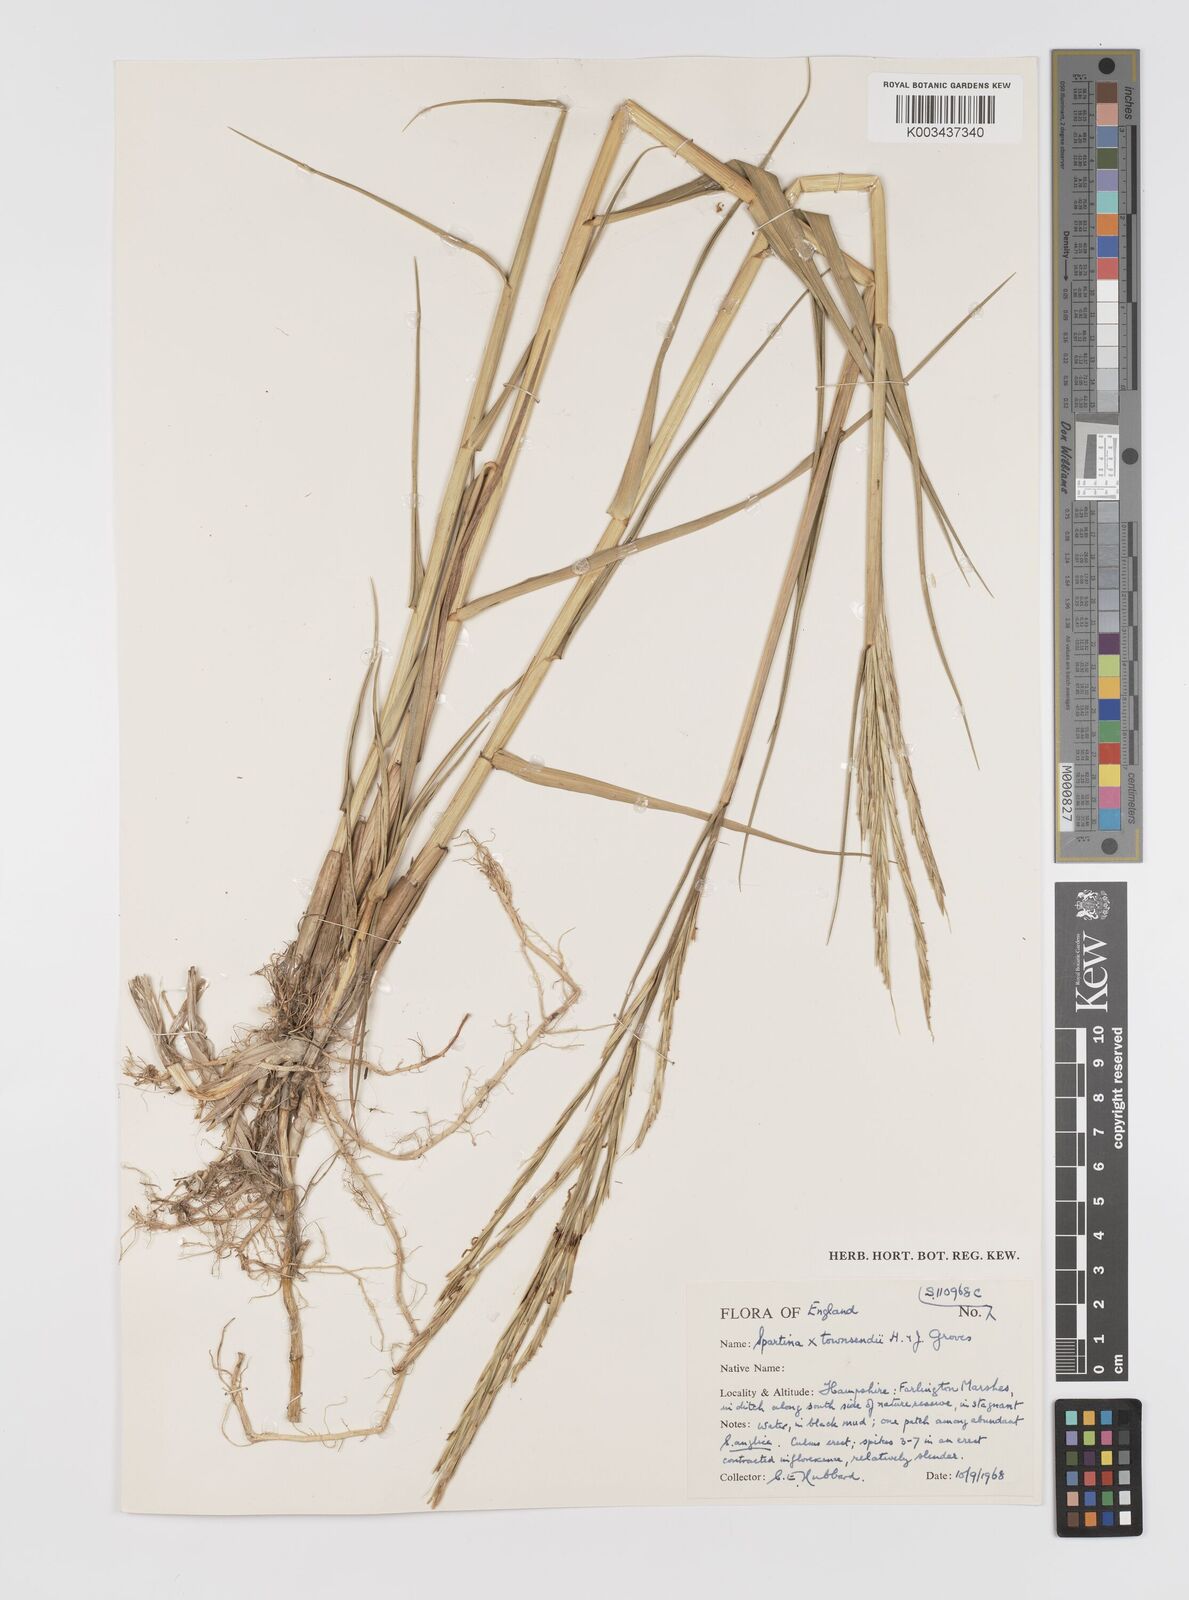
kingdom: Plantae
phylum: Tracheophyta
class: Liliopsida
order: Poales
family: Poaceae
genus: Sporobolus
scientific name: Sporobolus townsendii
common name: Townsend's cordgrass
